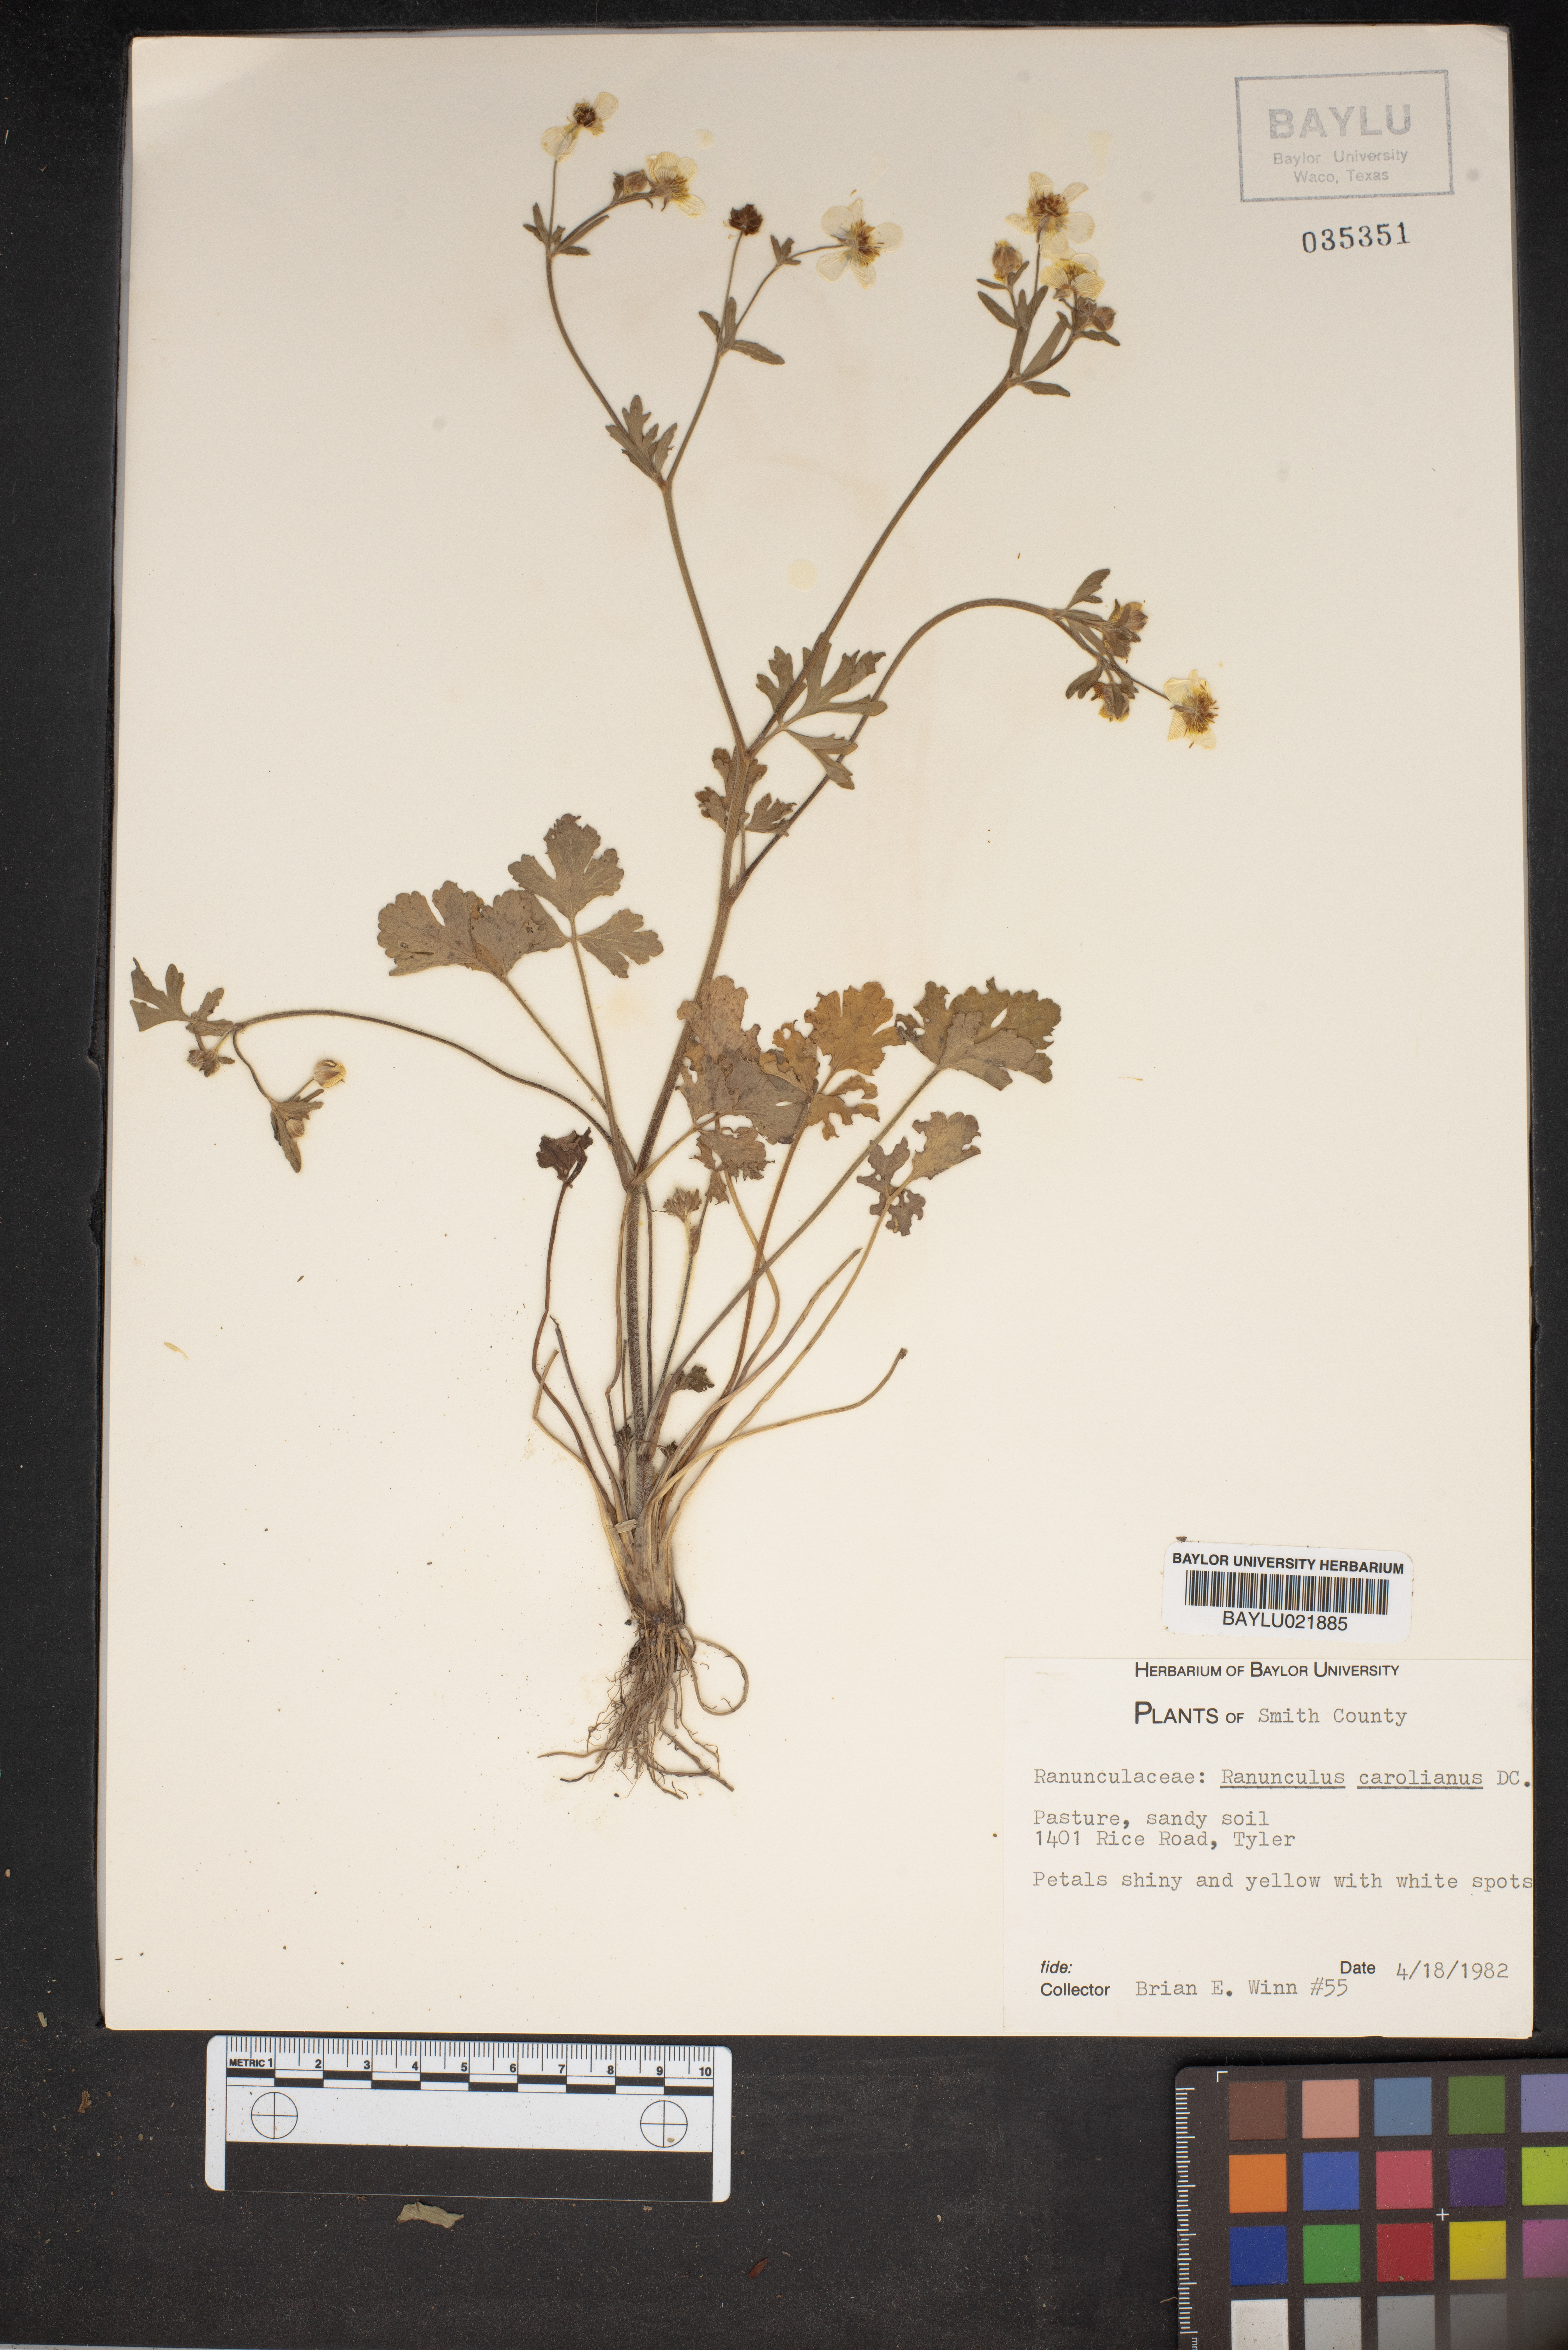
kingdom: Plantae
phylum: Tracheophyta
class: Magnoliopsida
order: Ranunculales
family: Ranunculaceae
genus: Ranunculus
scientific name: Ranunculus hispidus
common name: Bristly buttercup
